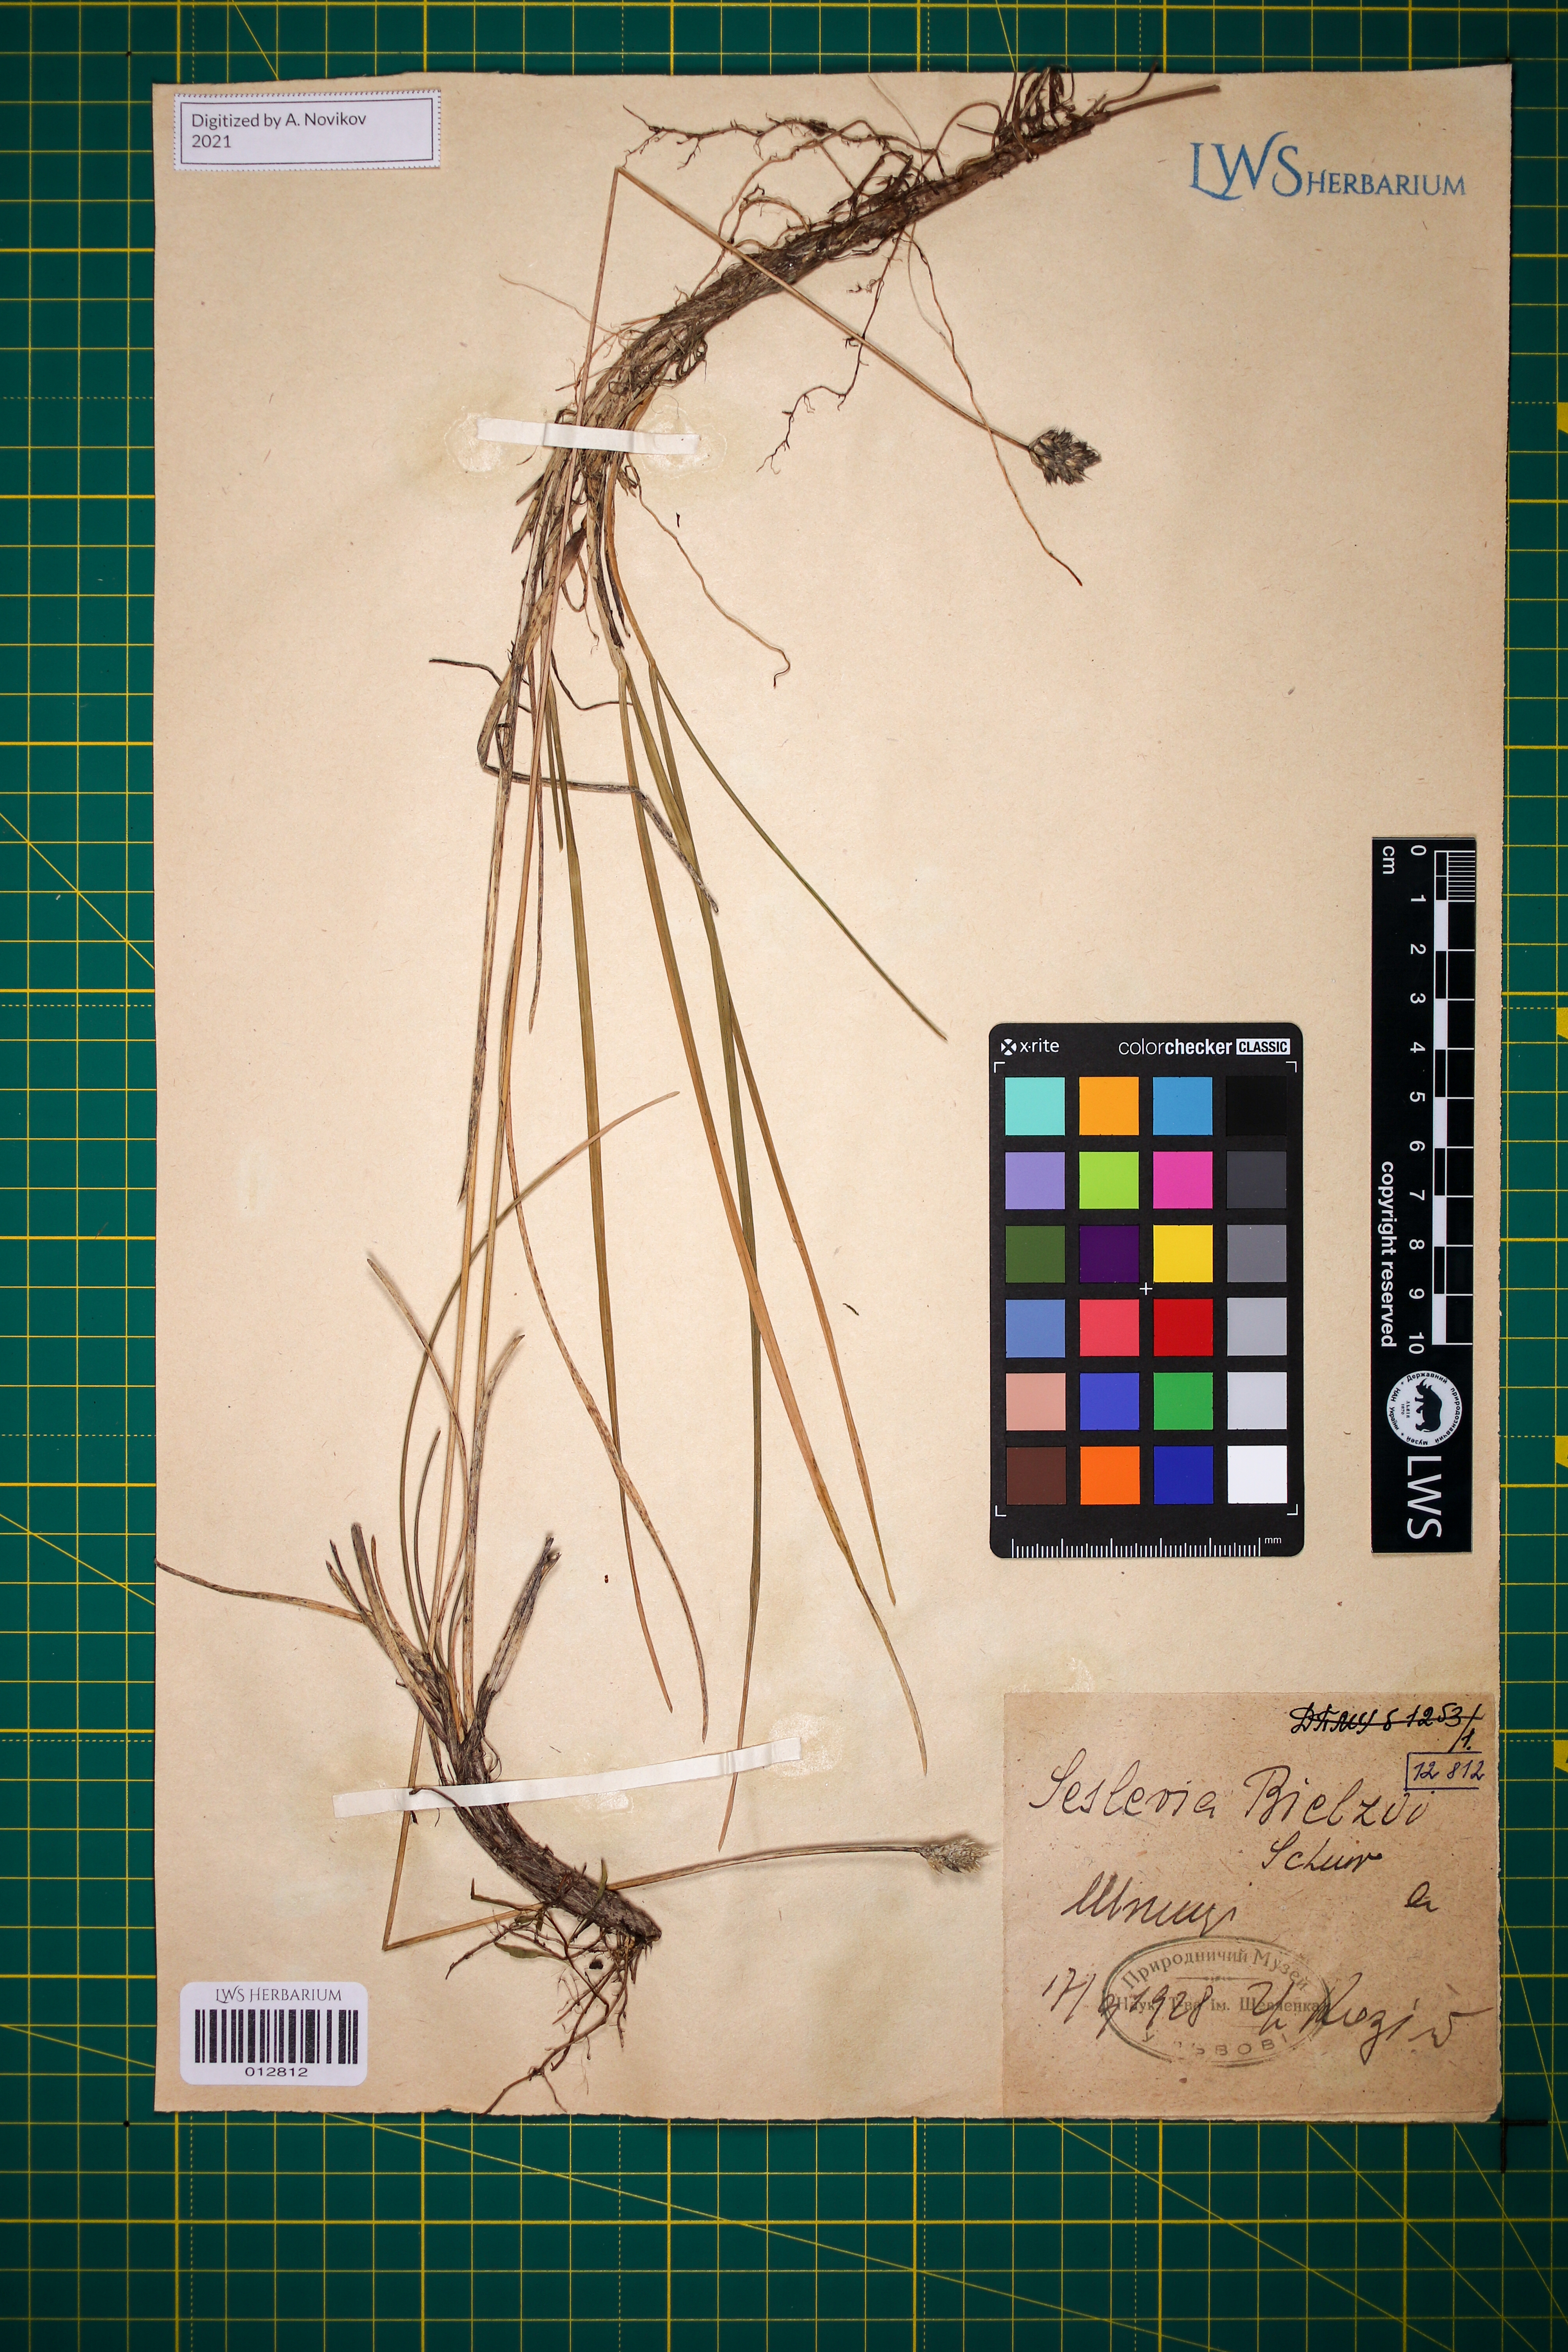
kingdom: Plantae
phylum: Tracheophyta
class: Liliopsida
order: Poales
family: Poaceae
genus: Sesleria
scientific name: Sesleria bielzii
